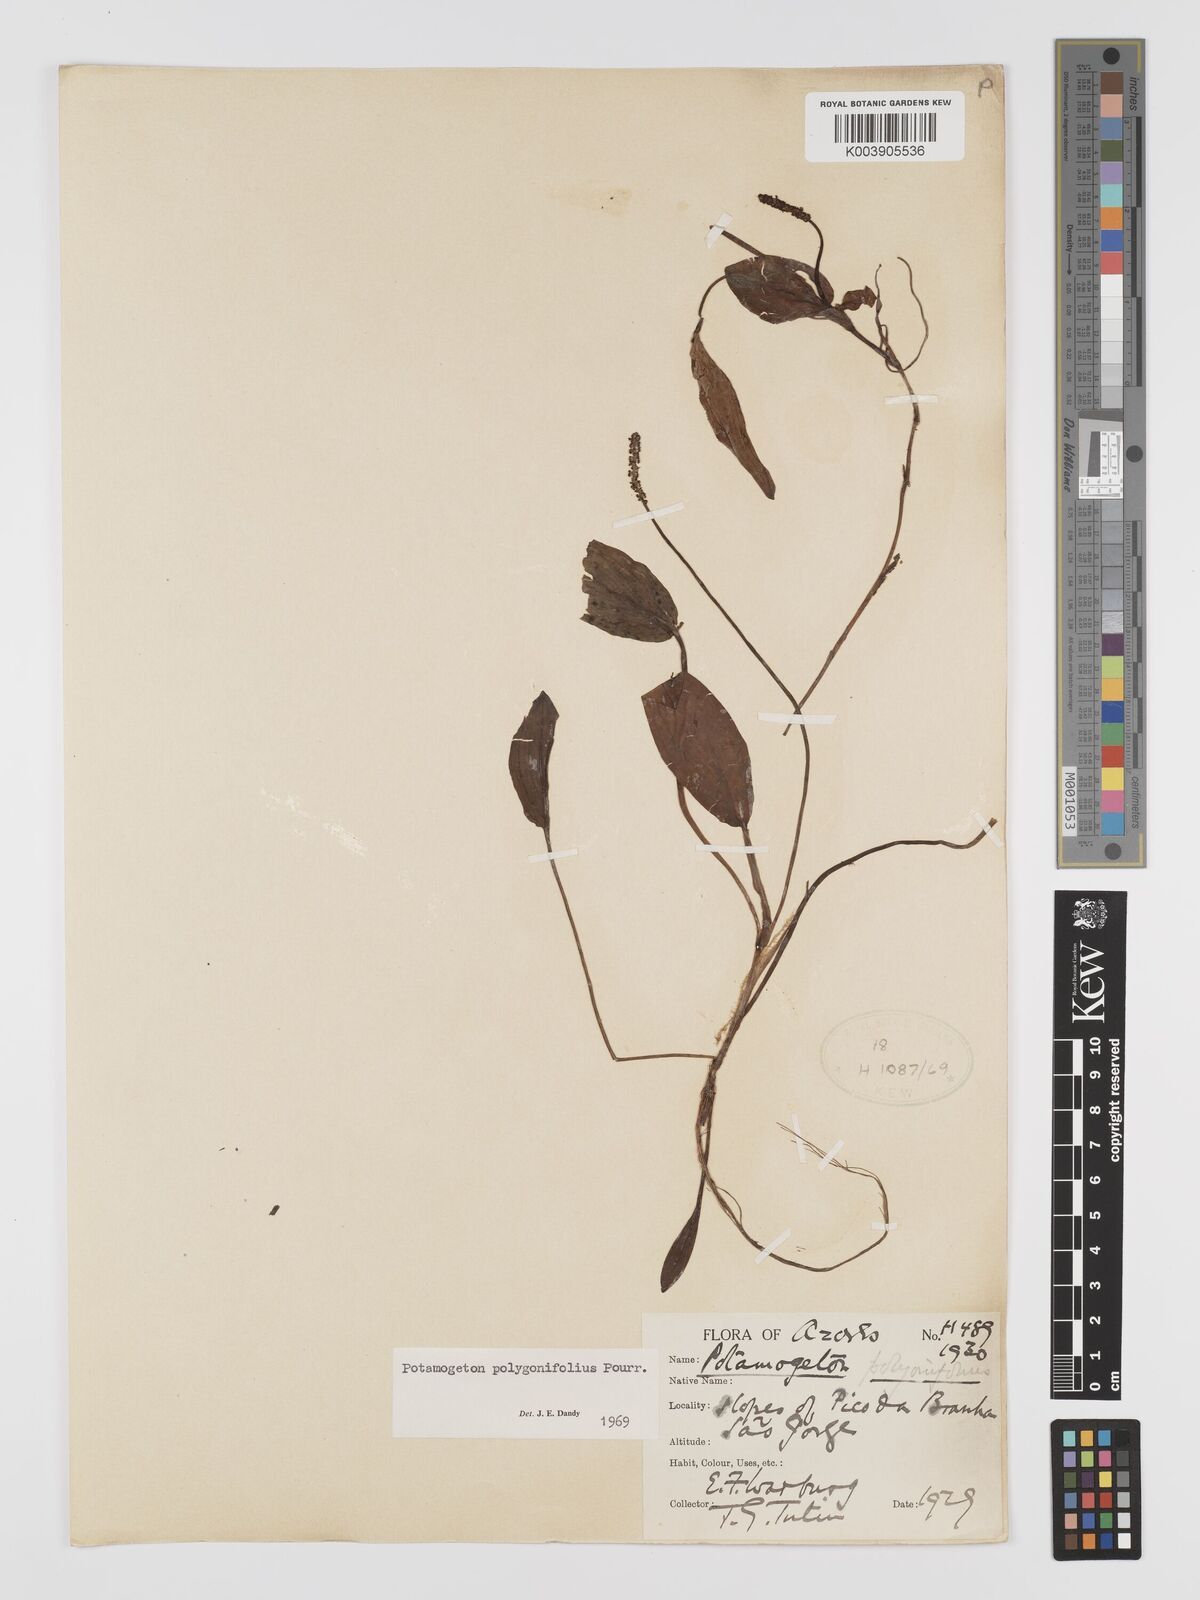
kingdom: Plantae
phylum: Tracheophyta
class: Liliopsida
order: Alismatales
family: Potamogetonaceae
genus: Potamogeton
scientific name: Potamogeton polygonifolius
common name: Bog pondweed
